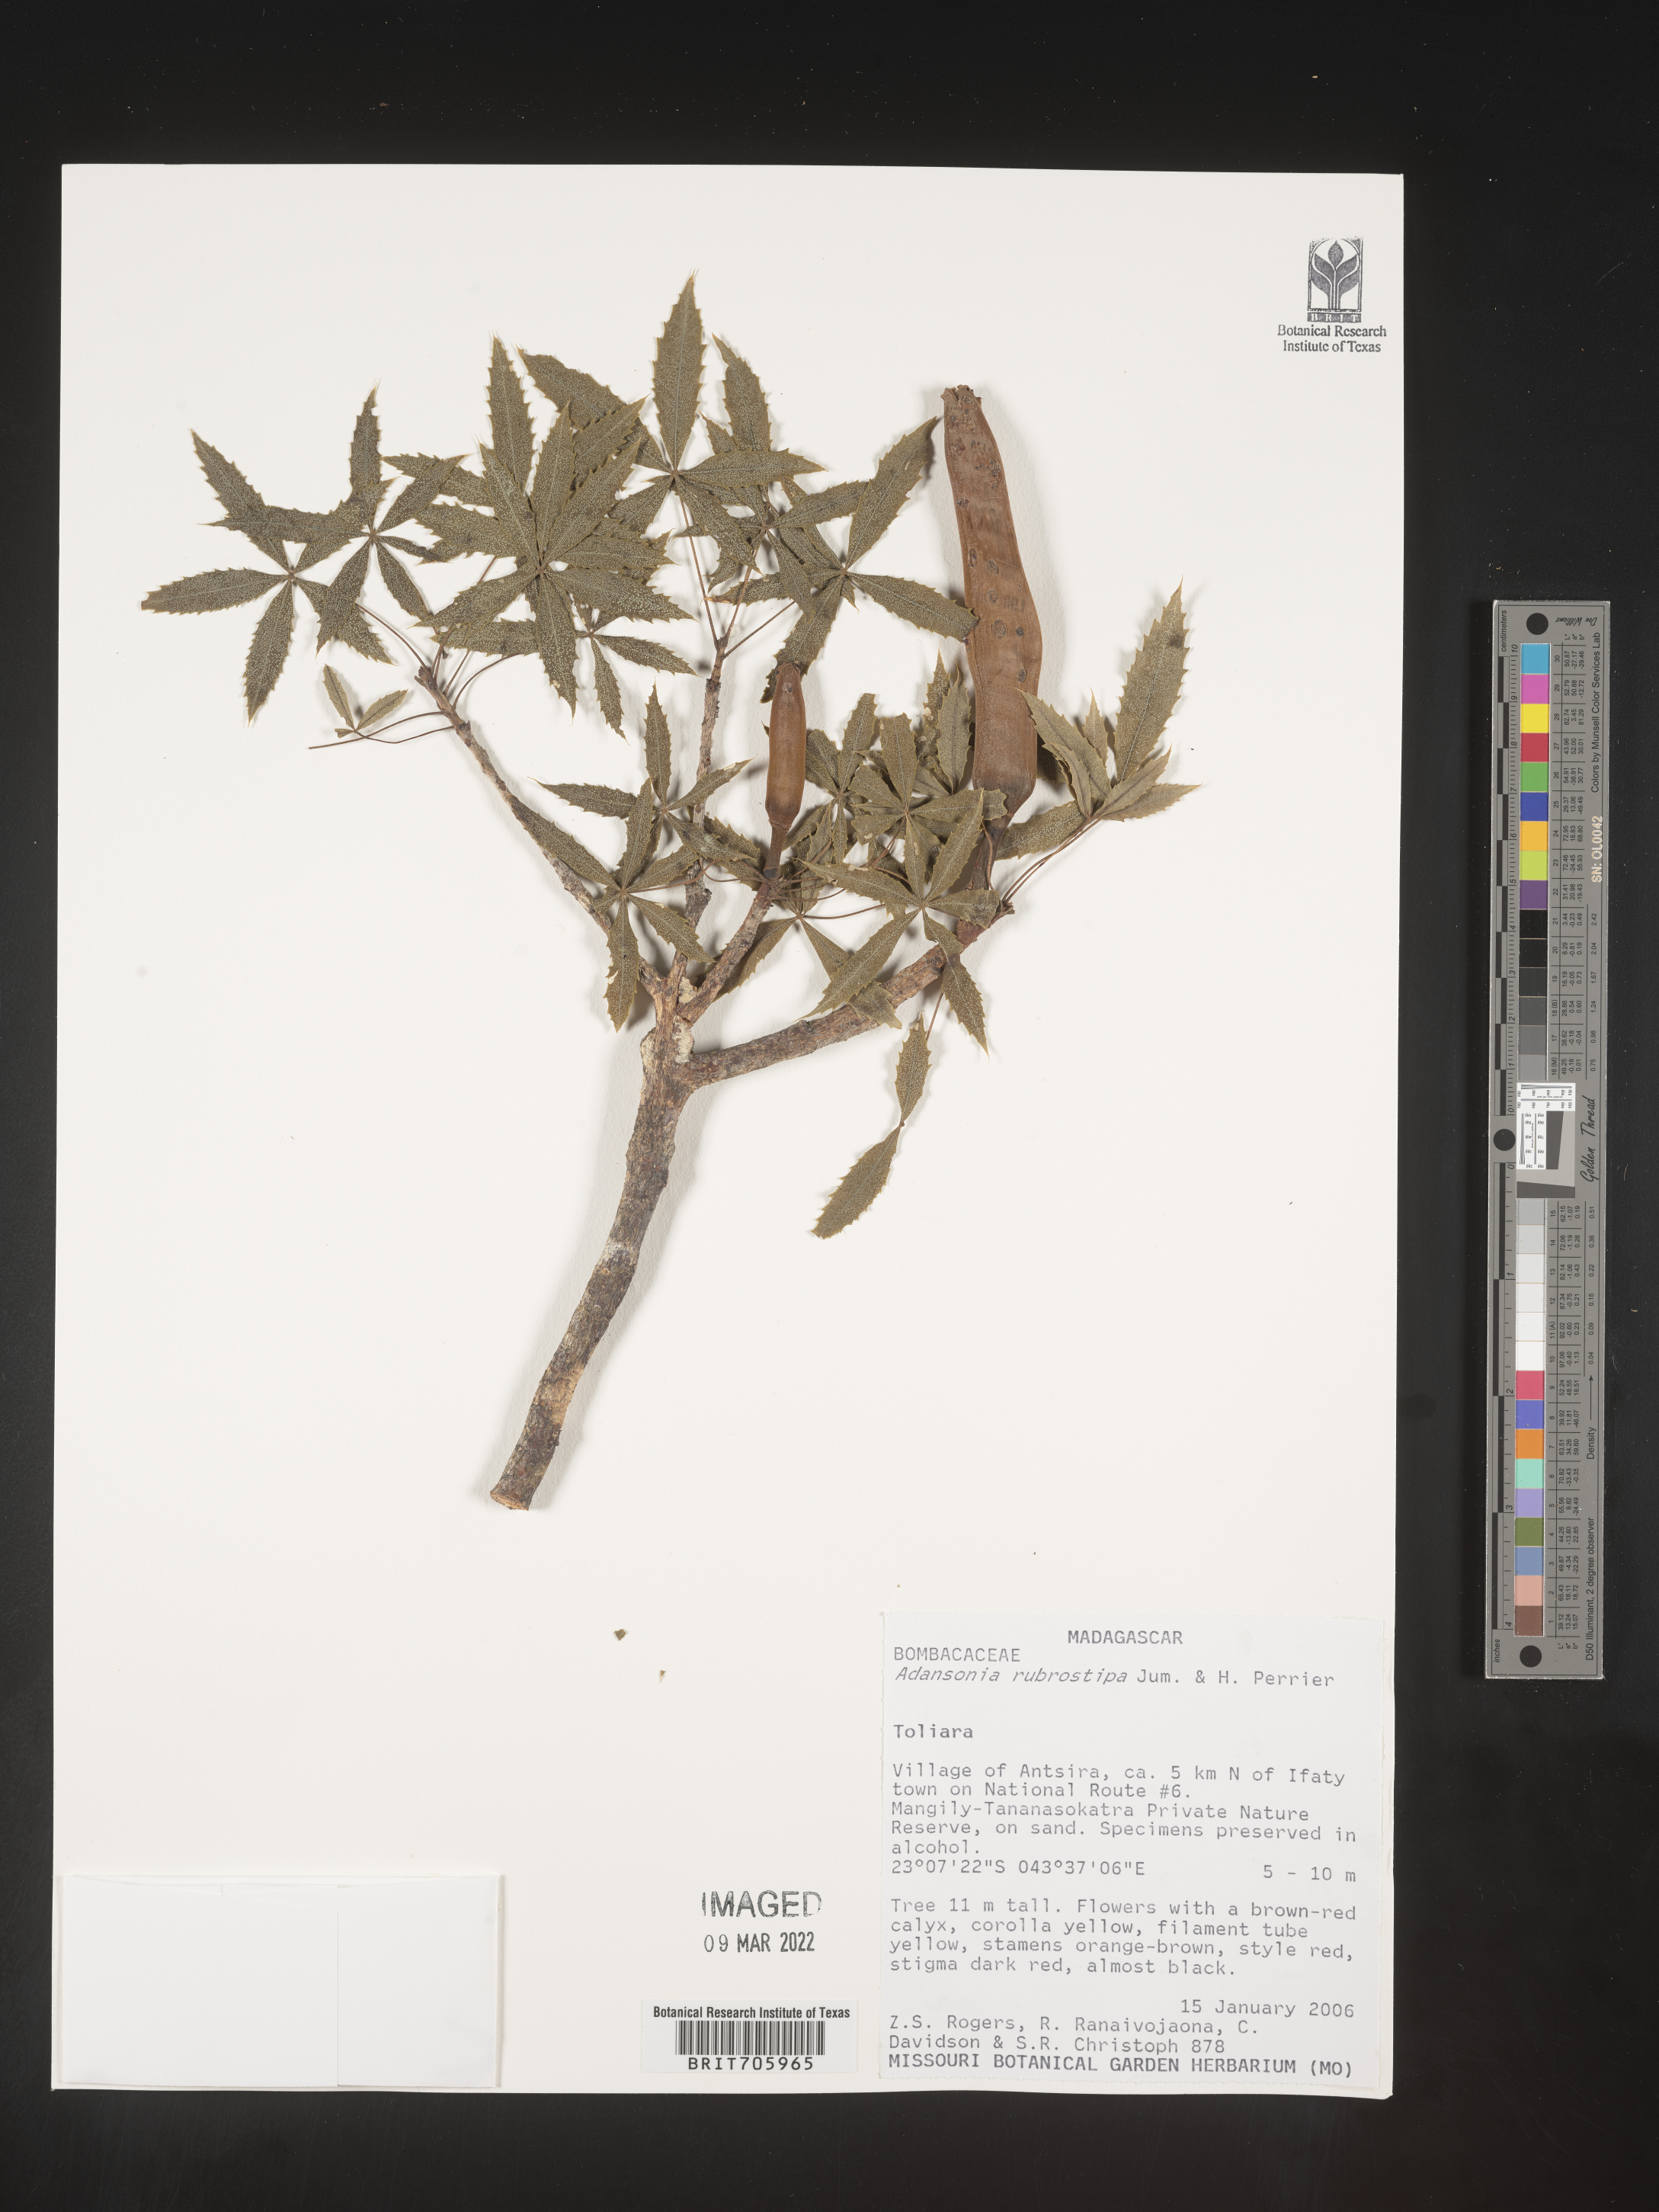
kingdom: Plantae
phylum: Tracheophyta
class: Magnoliopsida
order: Malvales
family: Malvaceae
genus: Adansonia
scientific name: Adansonia
